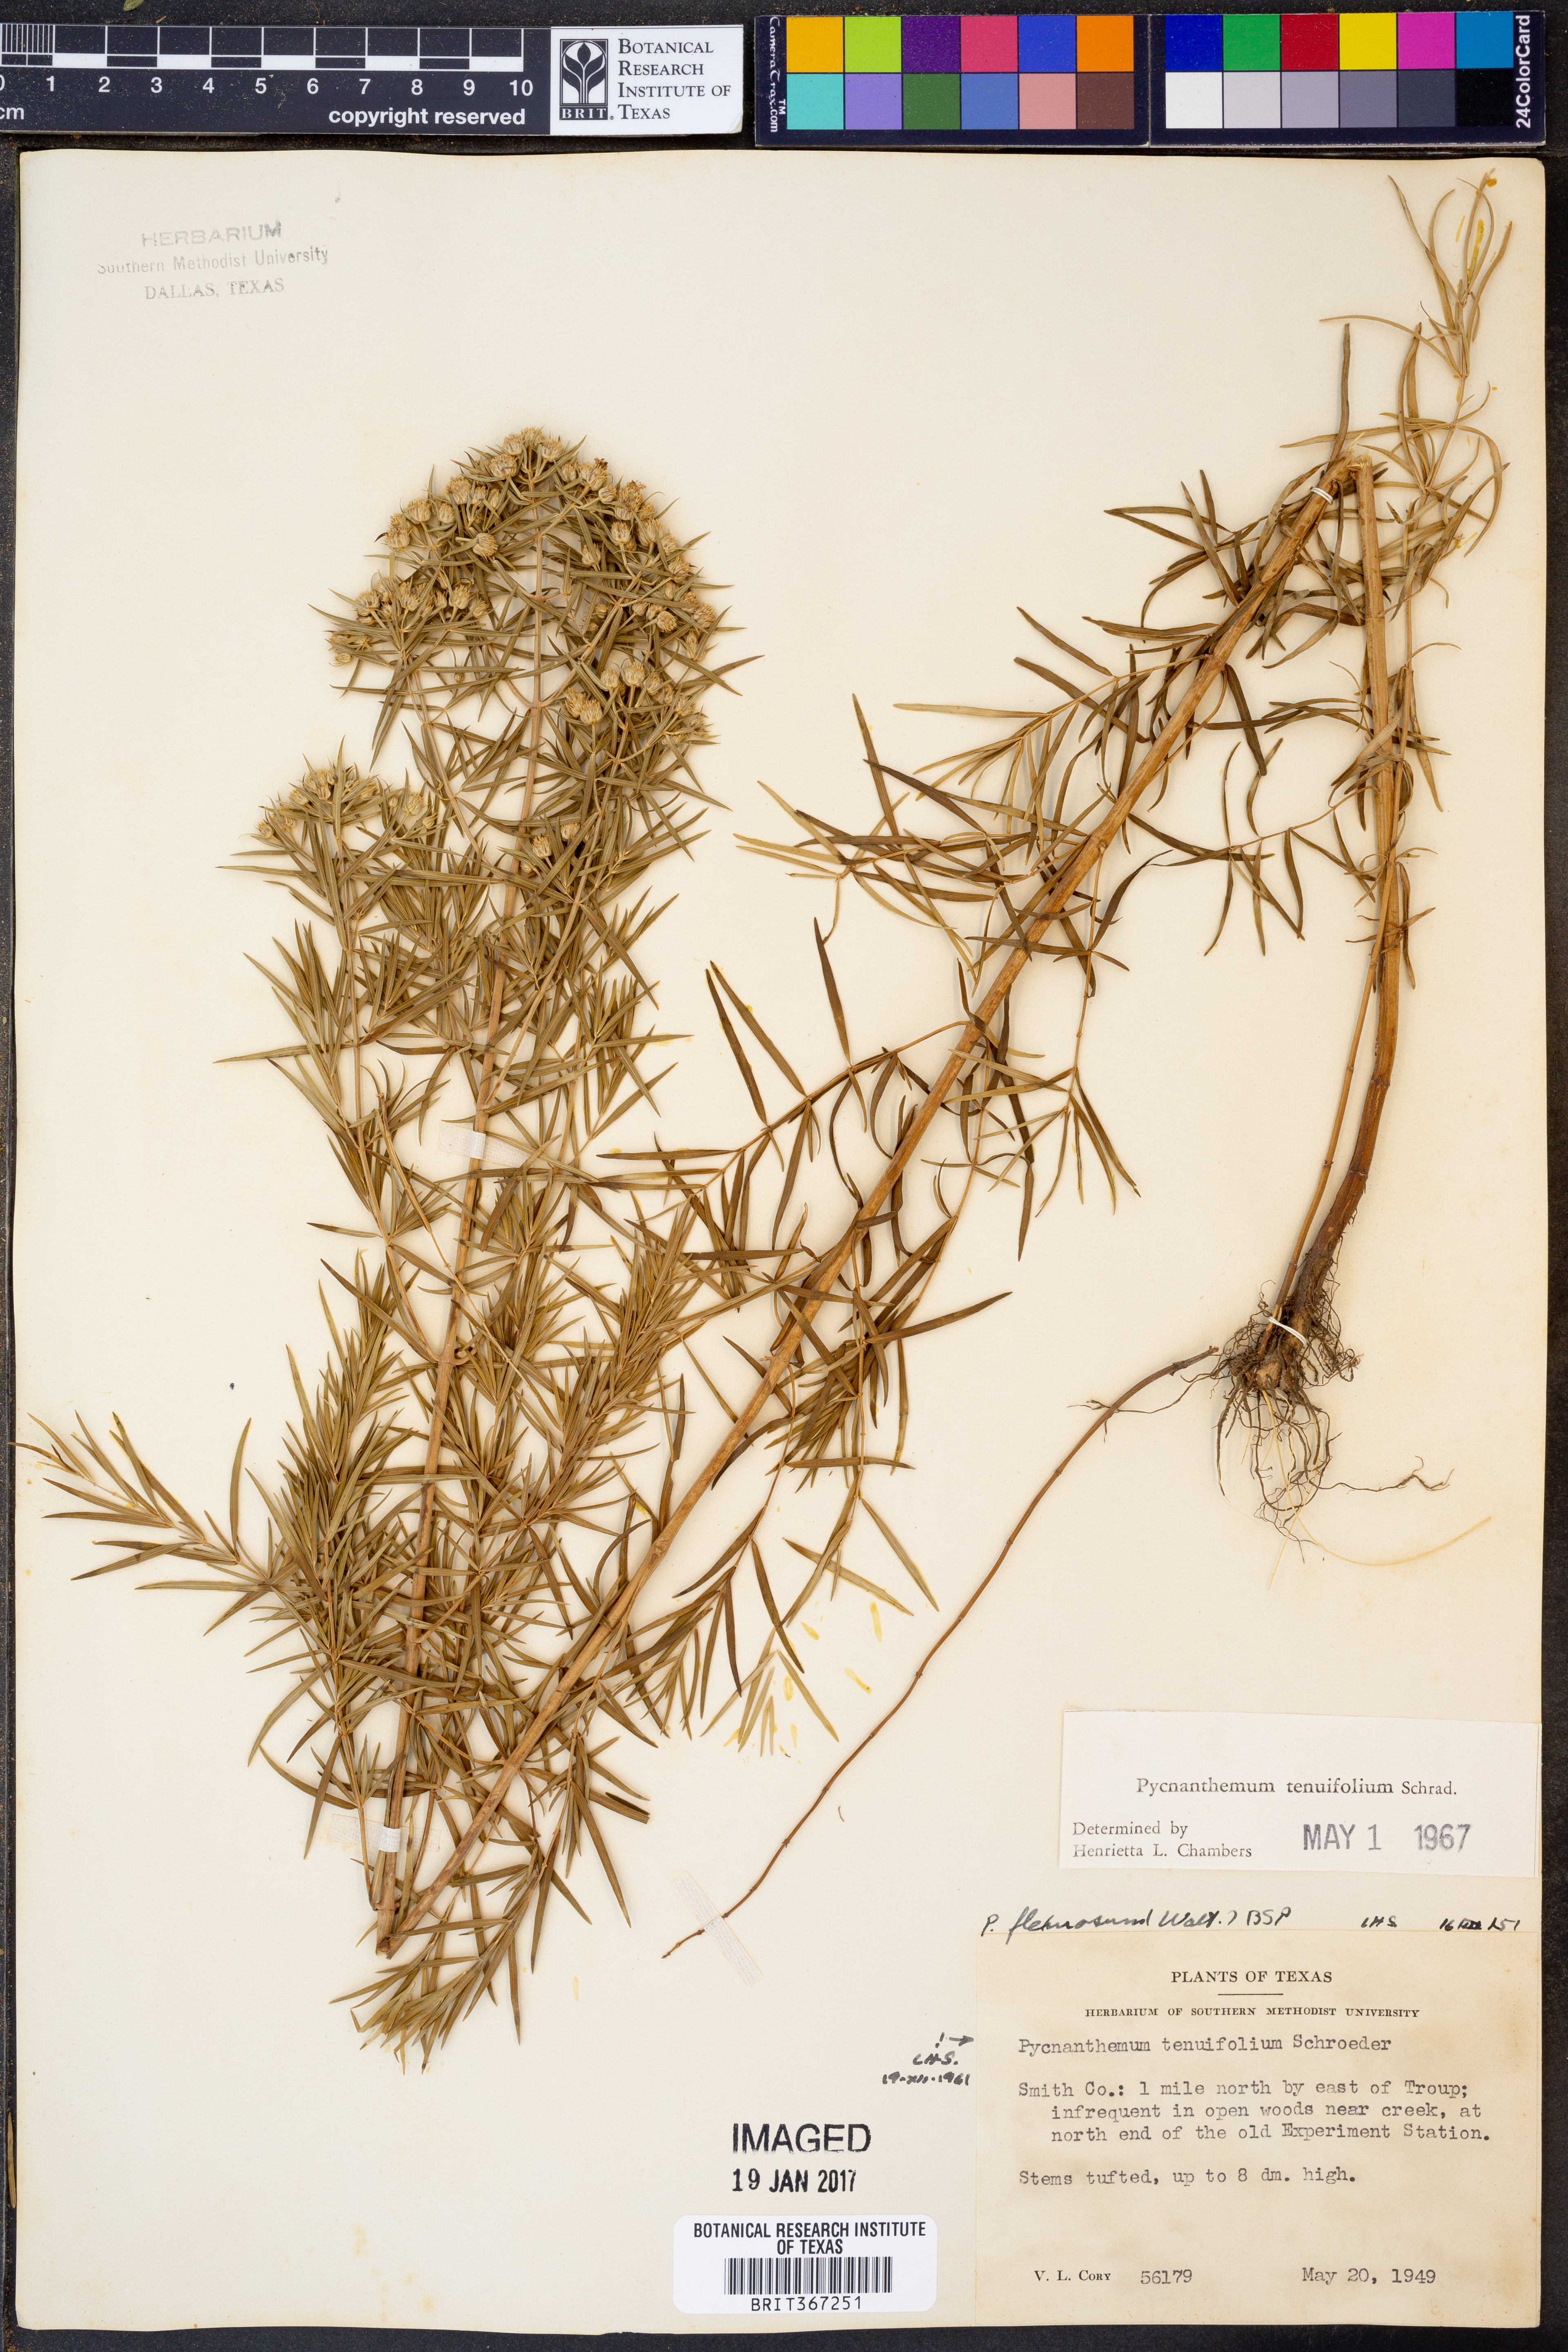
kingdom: Plantae
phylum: Tracheophyta
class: Magnoliopsida
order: Lamiales
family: Lamiaceae
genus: Pycnanthemum
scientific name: Pycnanthemum tenuifolium
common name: Narrow-leaf mountain-mint
